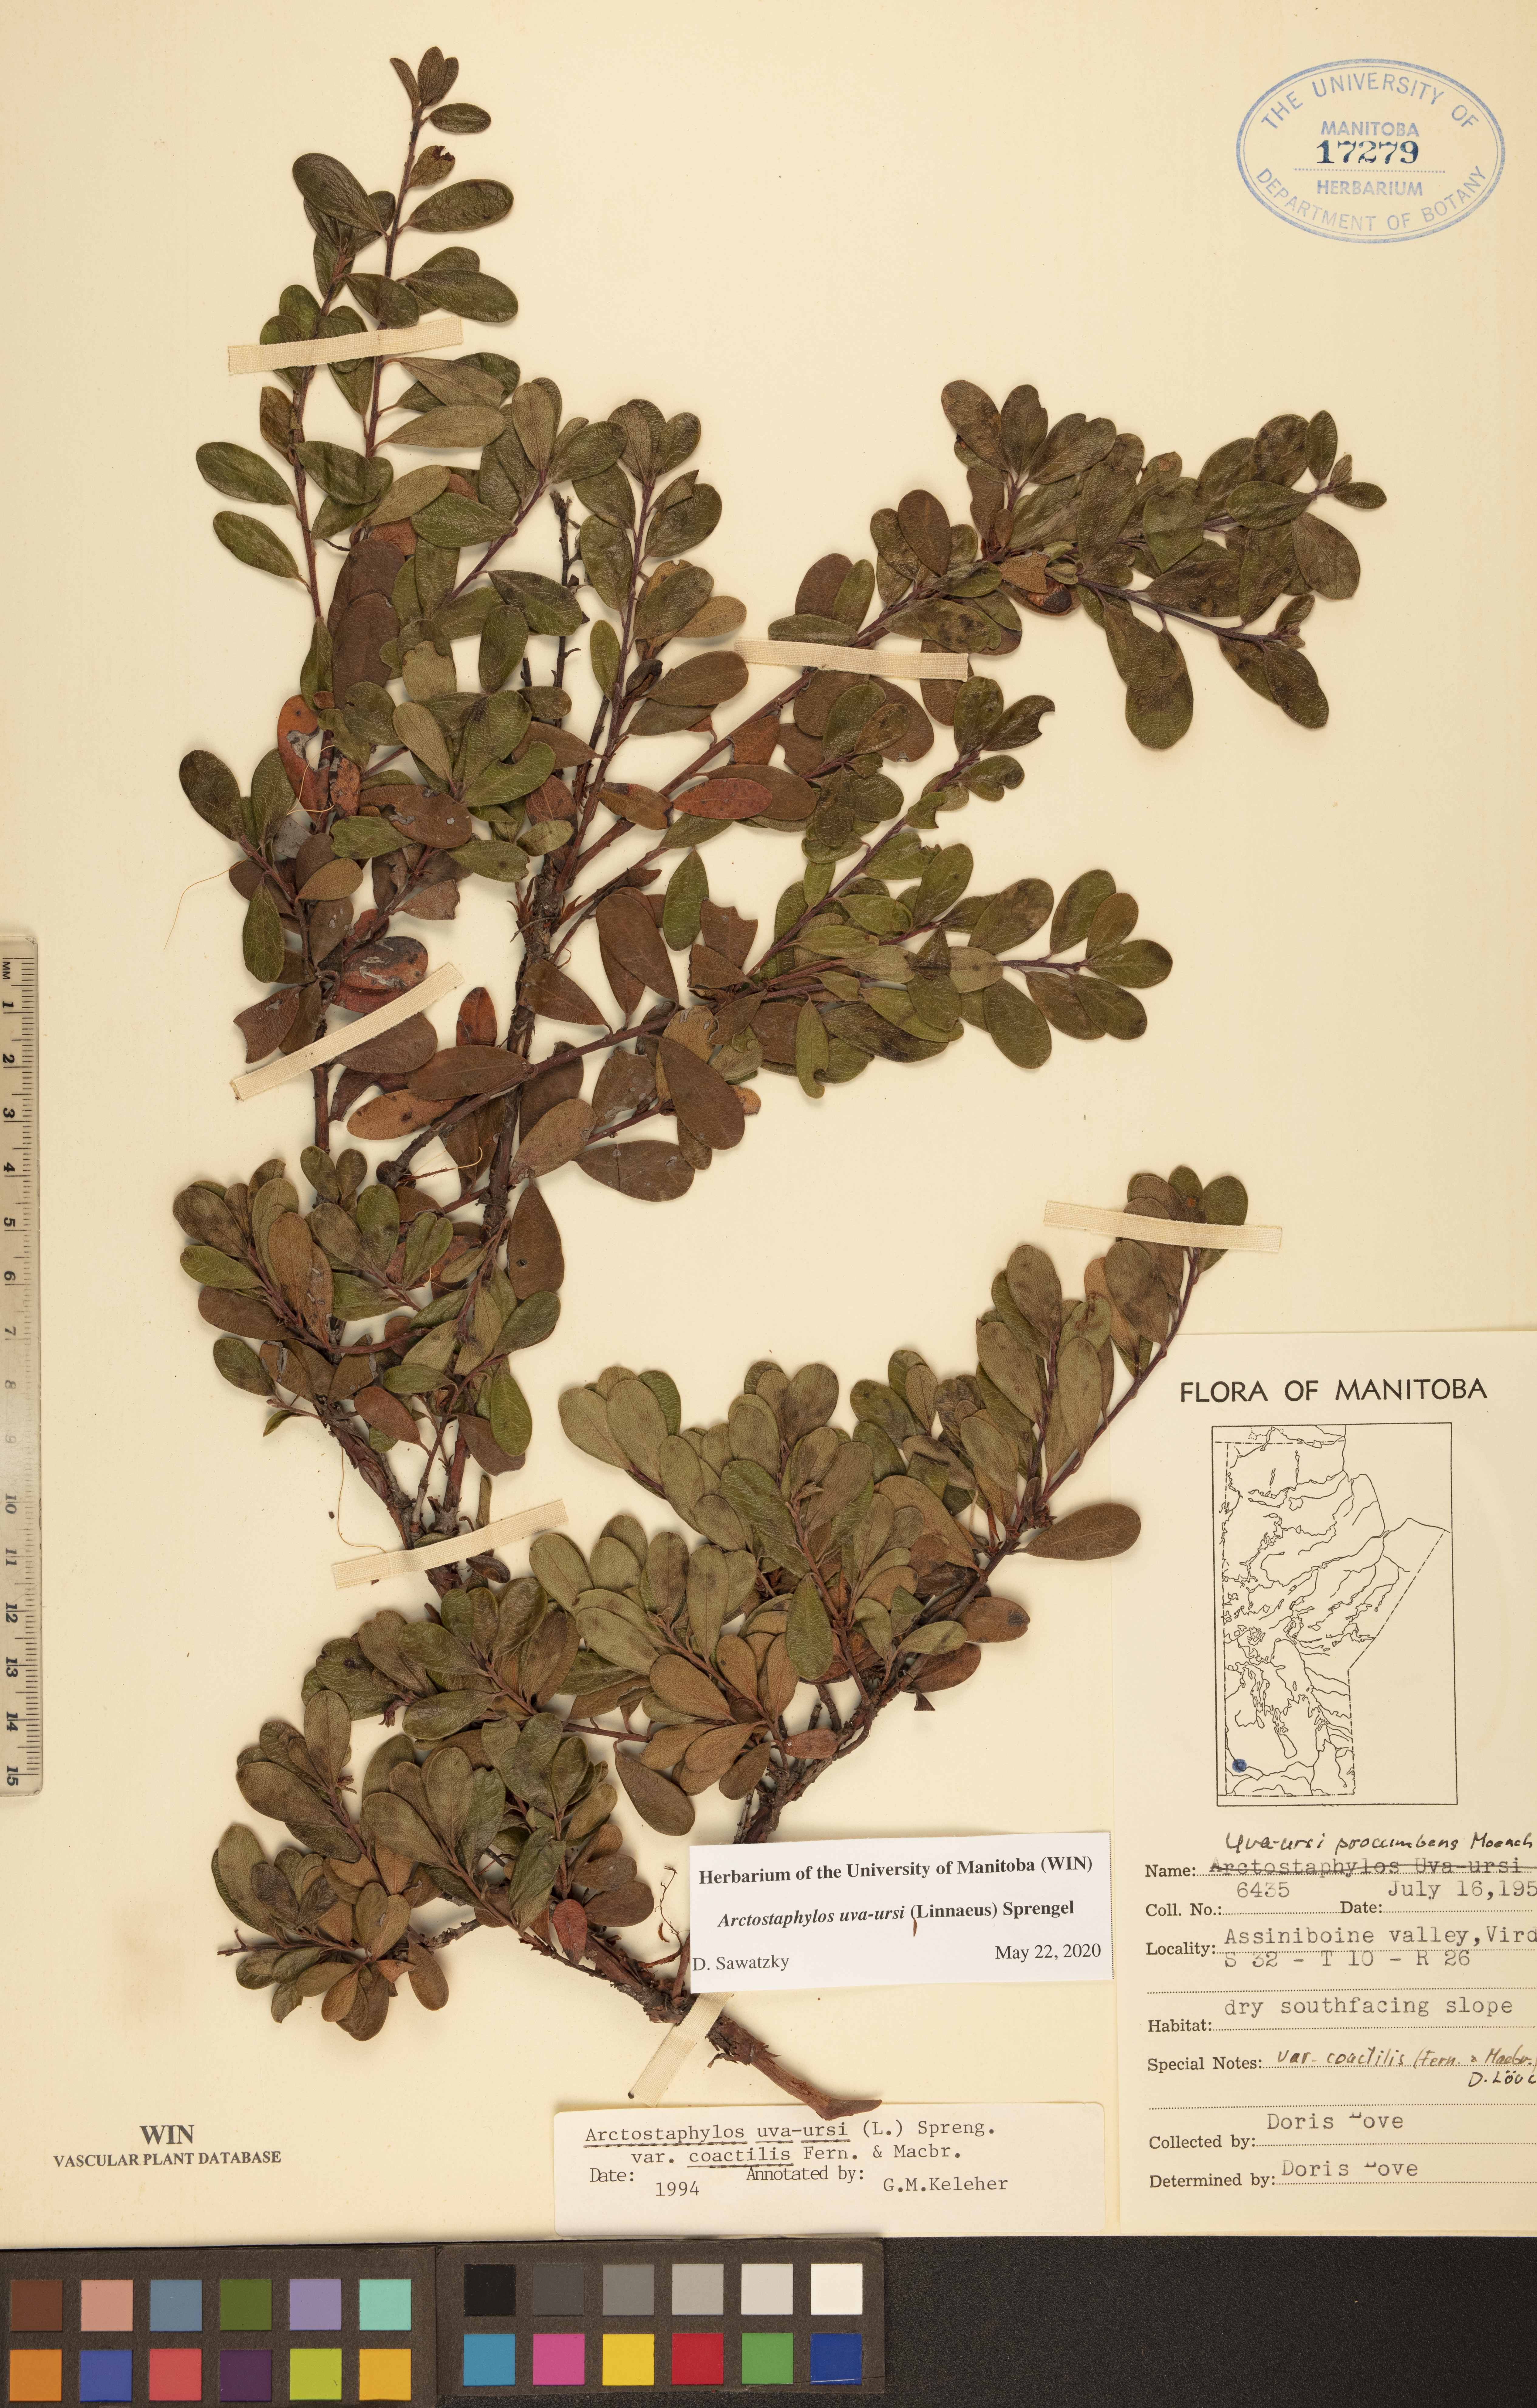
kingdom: Plantae
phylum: Tracheophyta
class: Magnoliopsida
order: Ericales
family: Ericaceae
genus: Arctostaphylos
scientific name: Arctostaphylos uva-ursi
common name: Bearberry
